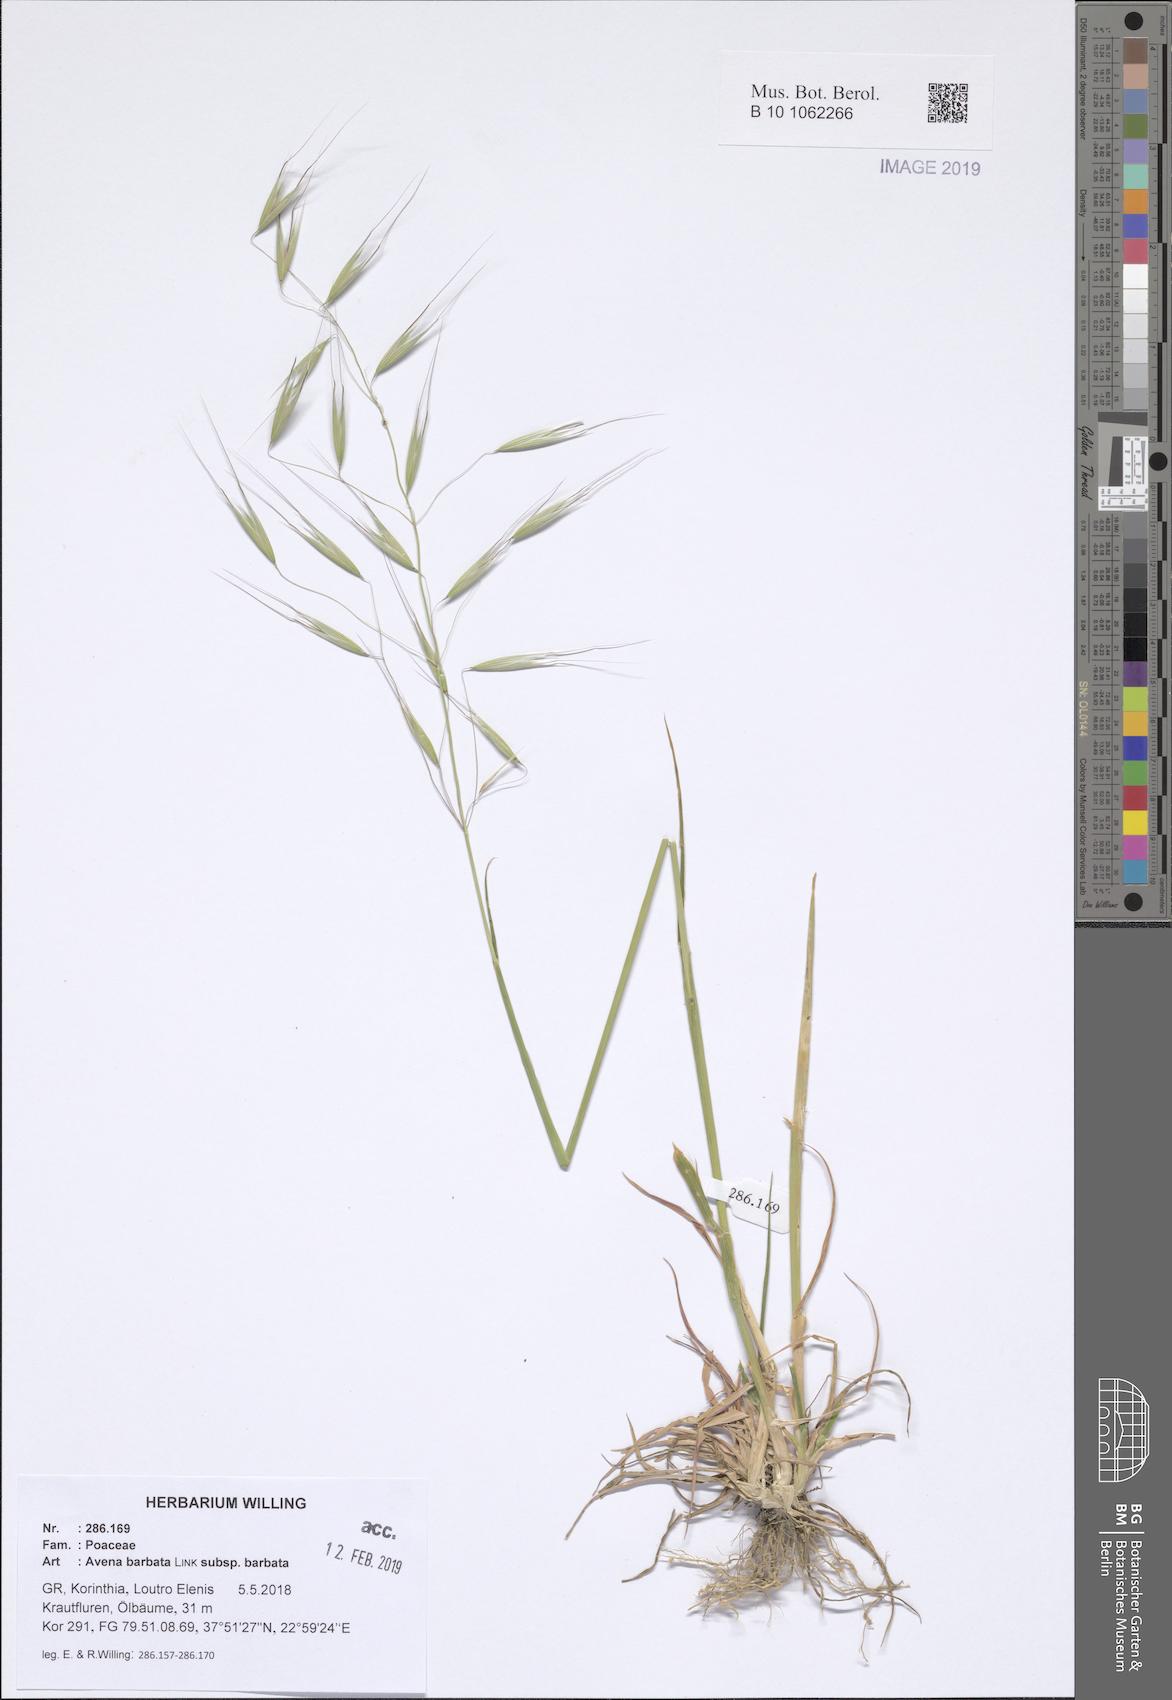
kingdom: Plantae
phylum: Tracheophyta
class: Liliopsida
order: Poales
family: Poaceae
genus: Avena
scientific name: Avena barbata
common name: Slender oat
